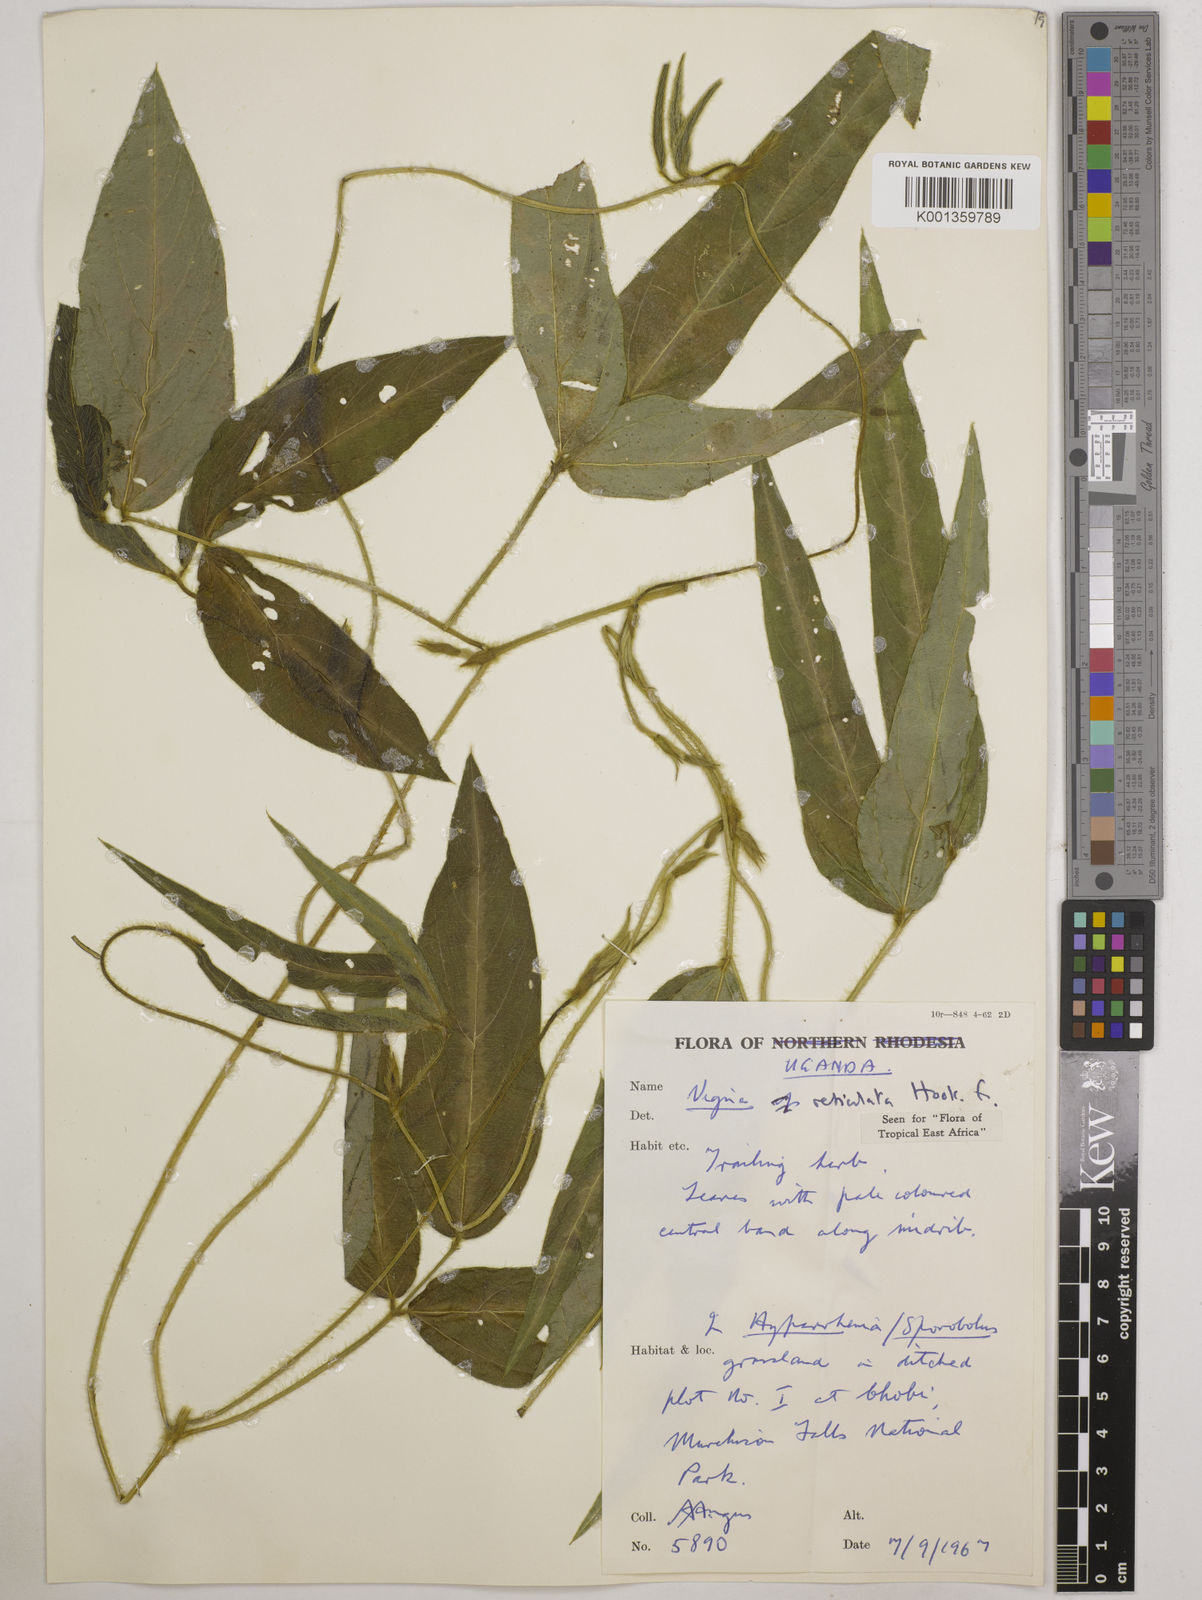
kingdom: Plantae
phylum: Tracheophyta
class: Magnoliopsida
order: Fabales
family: Fabaceae
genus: Vigna
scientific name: Vigna reticulata
